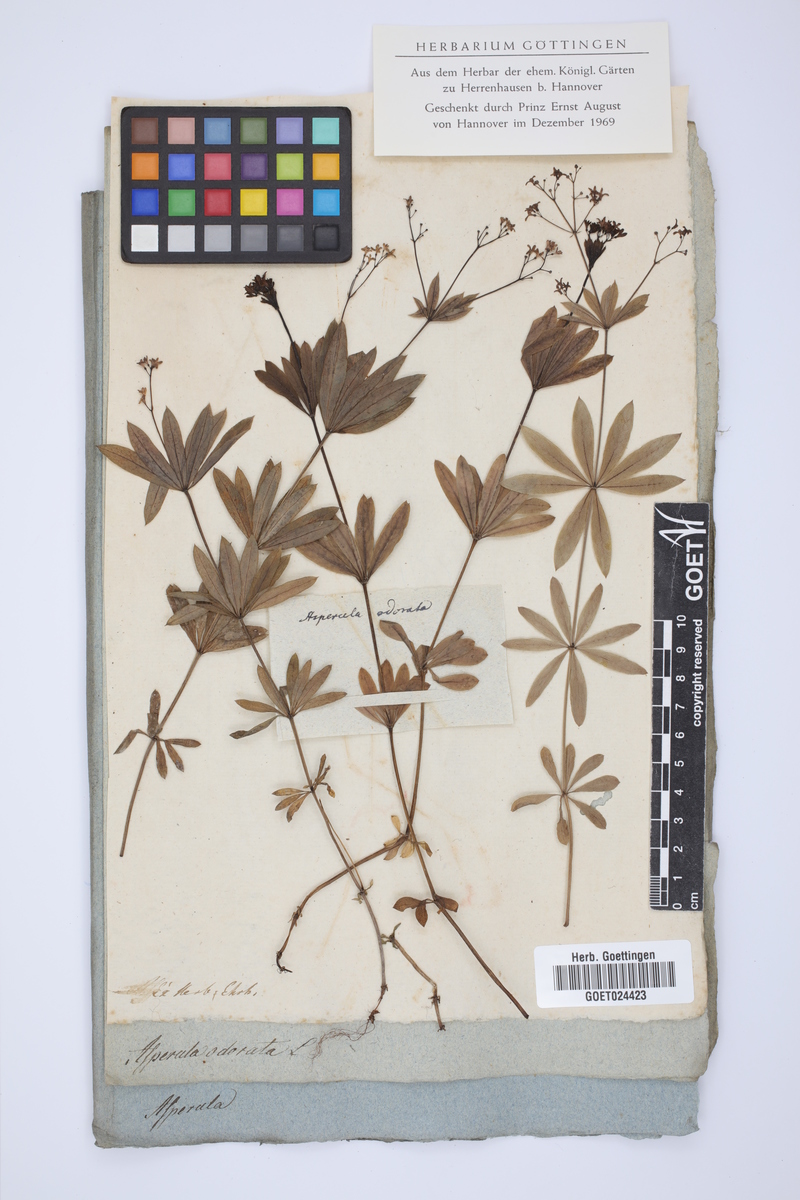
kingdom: Plantae
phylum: Tracheophyta
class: Magnoliopsida
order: Gentianales
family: Rubiaceae
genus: Galium
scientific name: Galium odoratum
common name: Sweet woodruff
